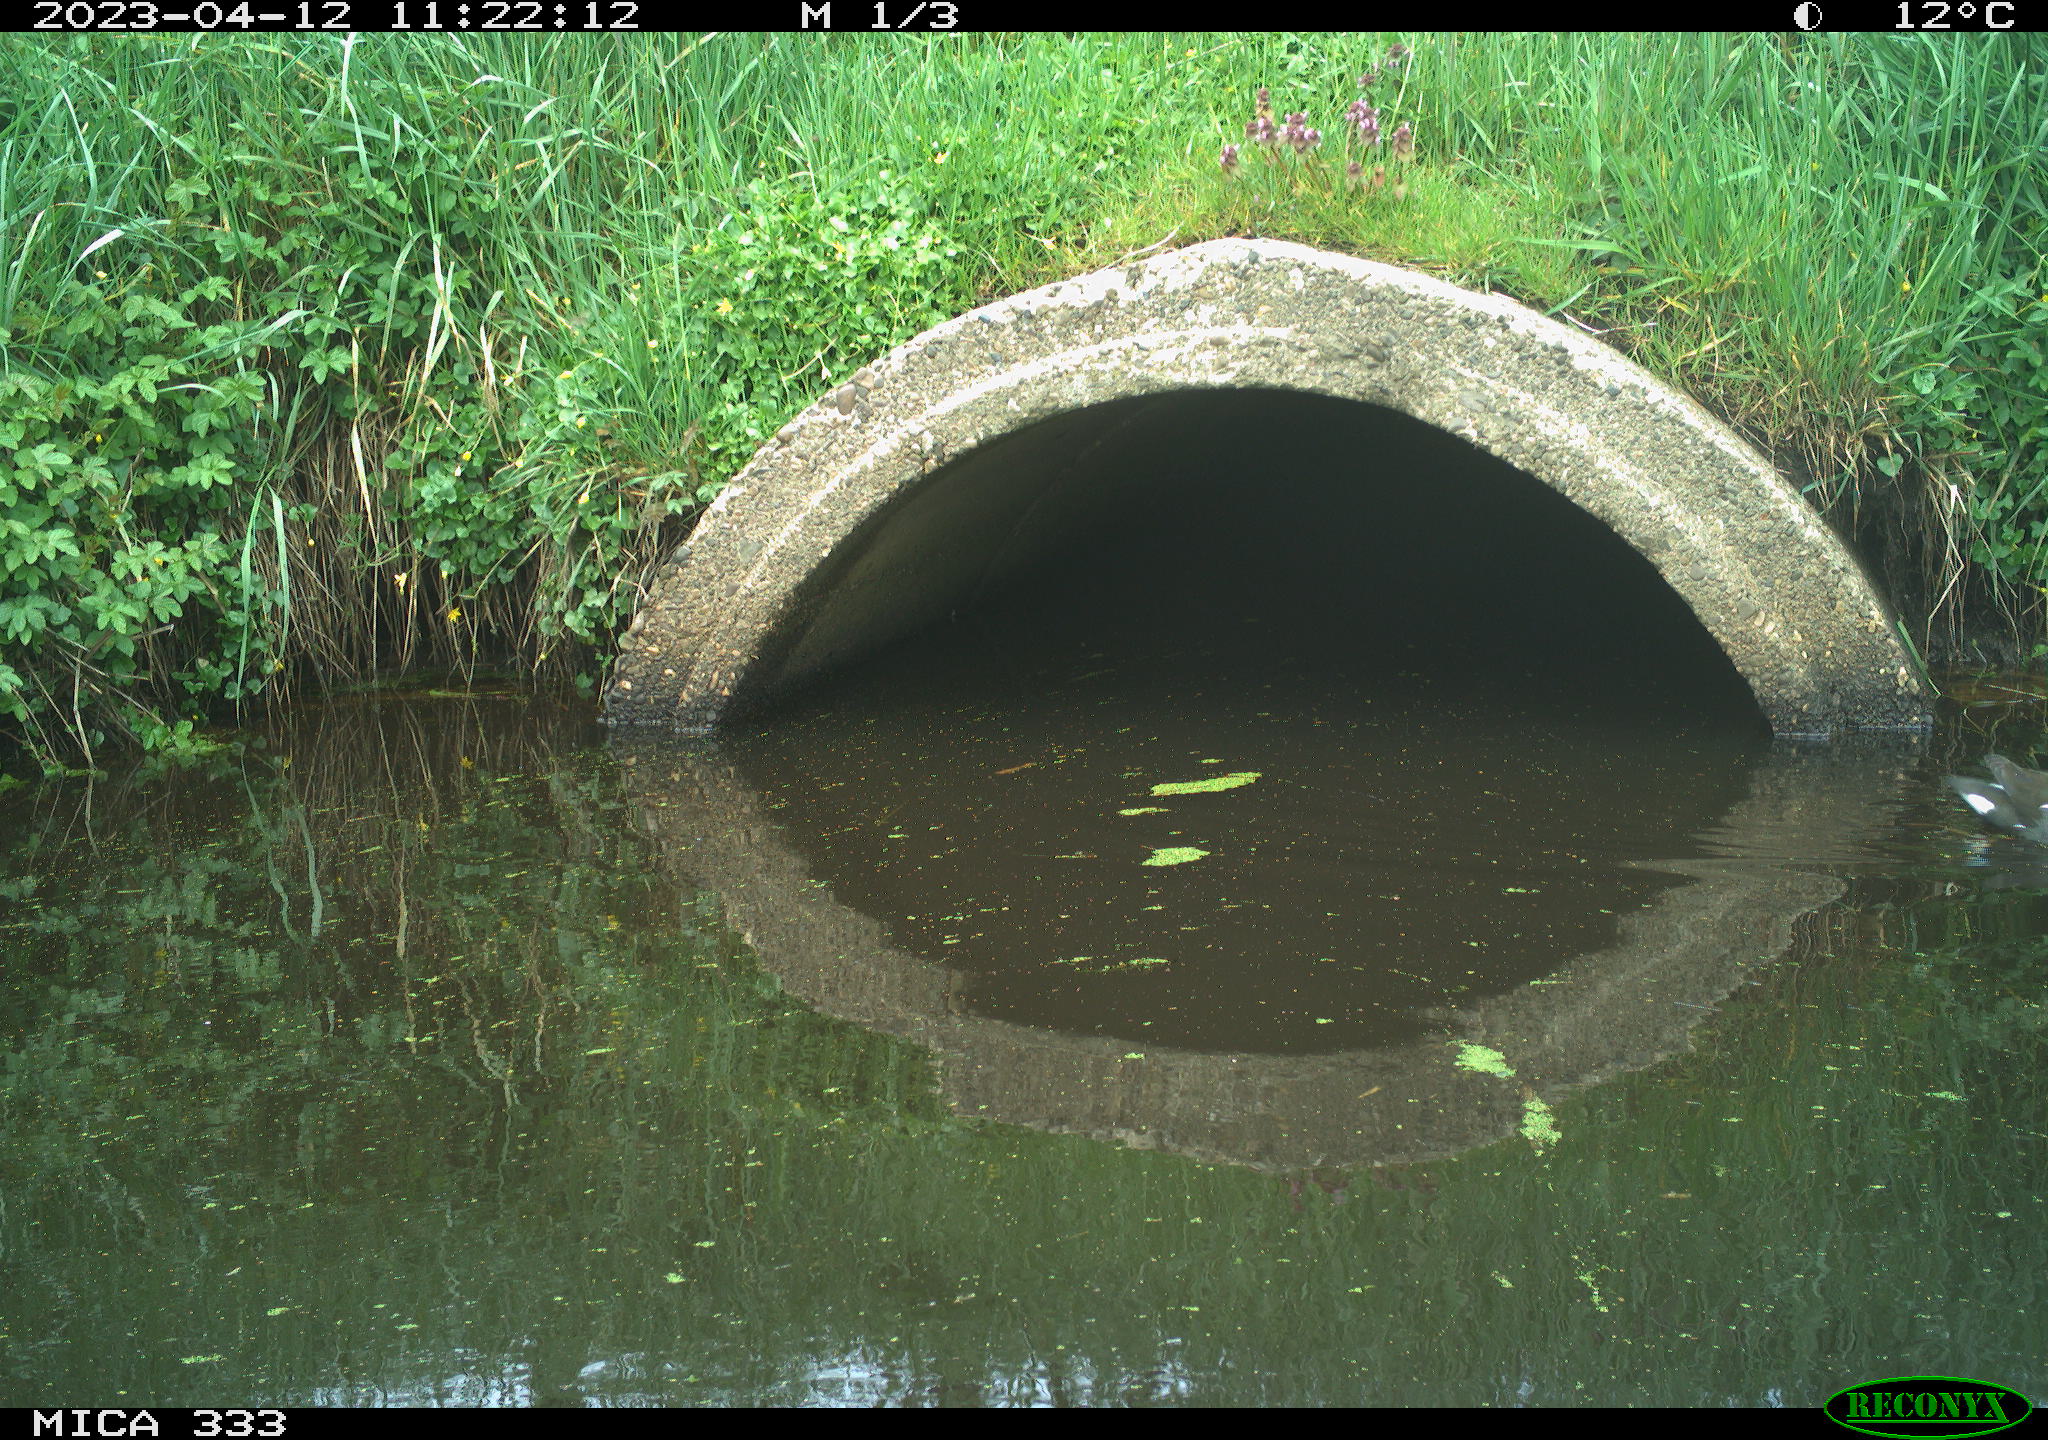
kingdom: Animalia
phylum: Chordata
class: Aves
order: Gruiformes
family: Rallidae
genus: Gallinula
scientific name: Gallinula chloropus
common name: Common moorhen
